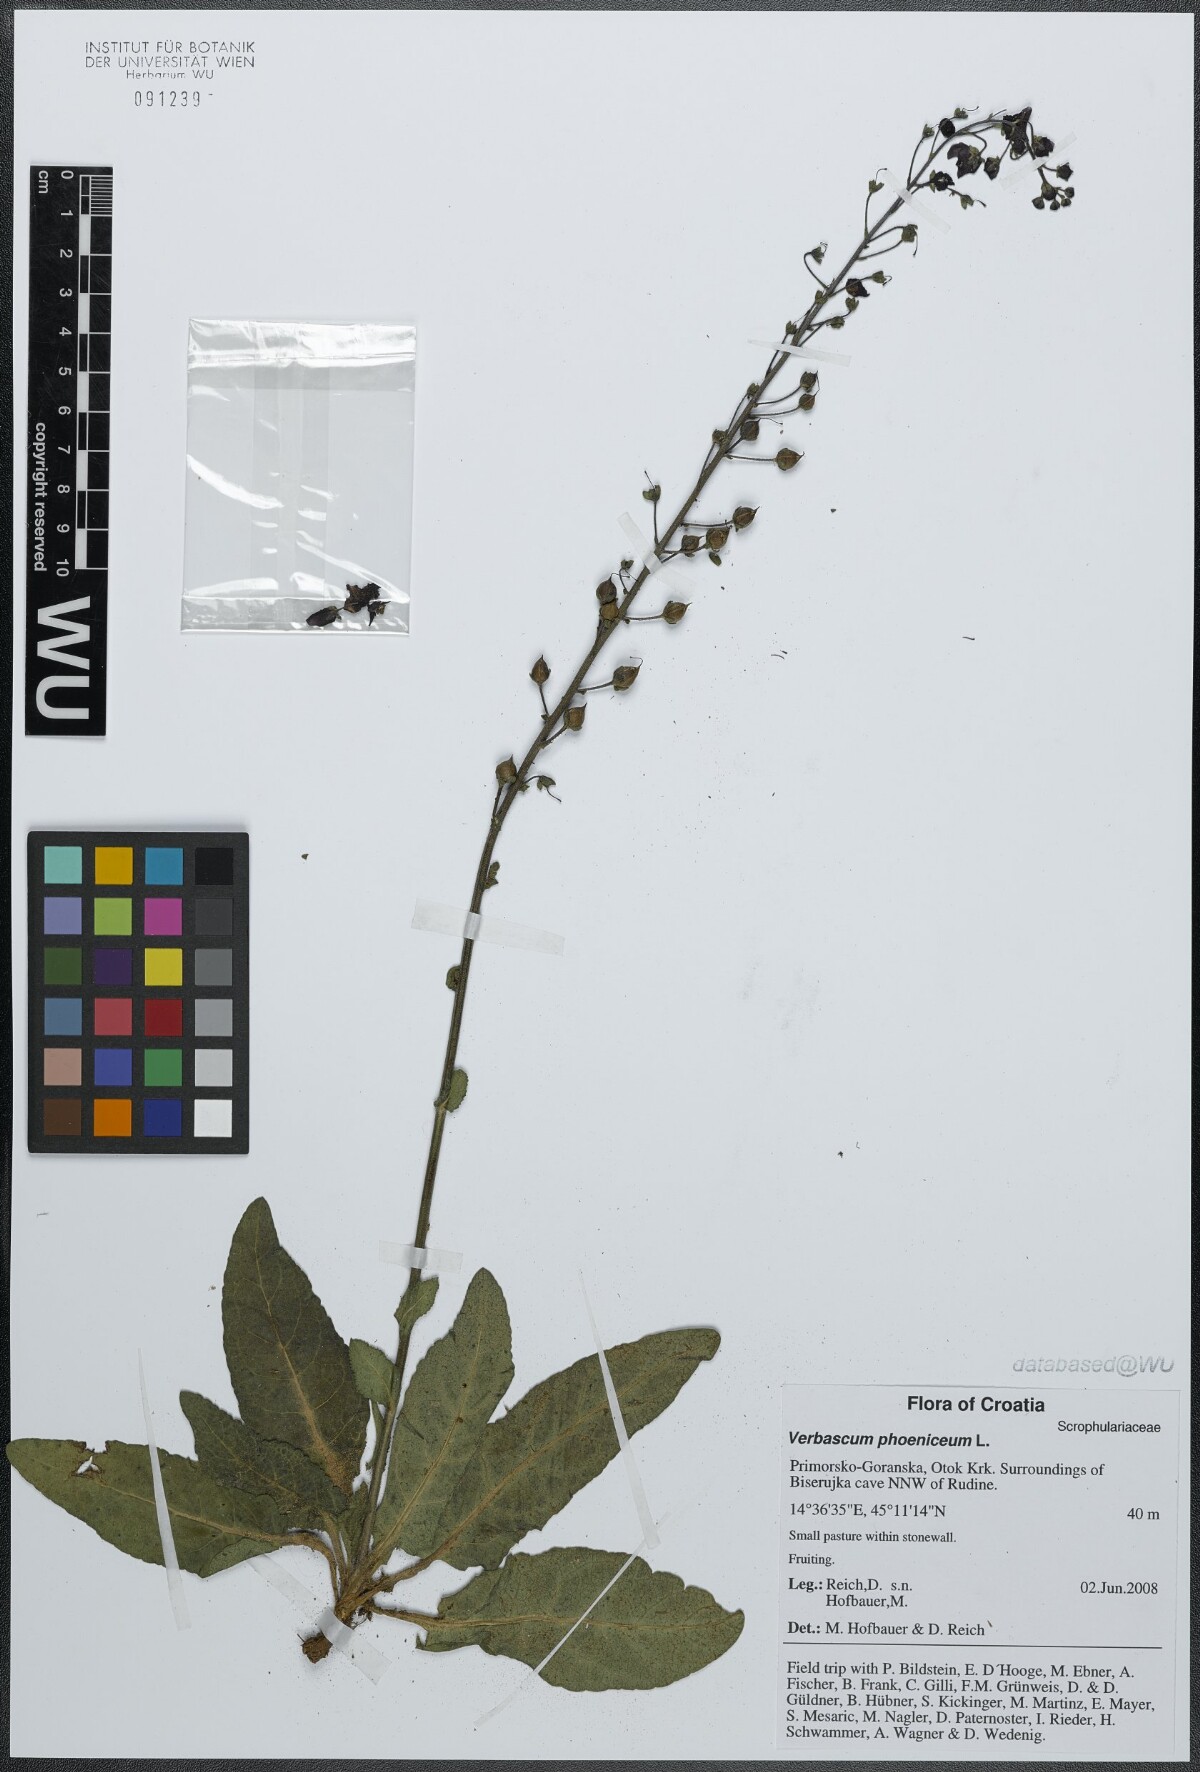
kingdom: Plantae
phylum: Tracheophyta
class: Magnoliopsida
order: Lamiales
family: Scrophulariaceae
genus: Verbascum
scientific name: Verbascum phoeniceum
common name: Purple mullein
